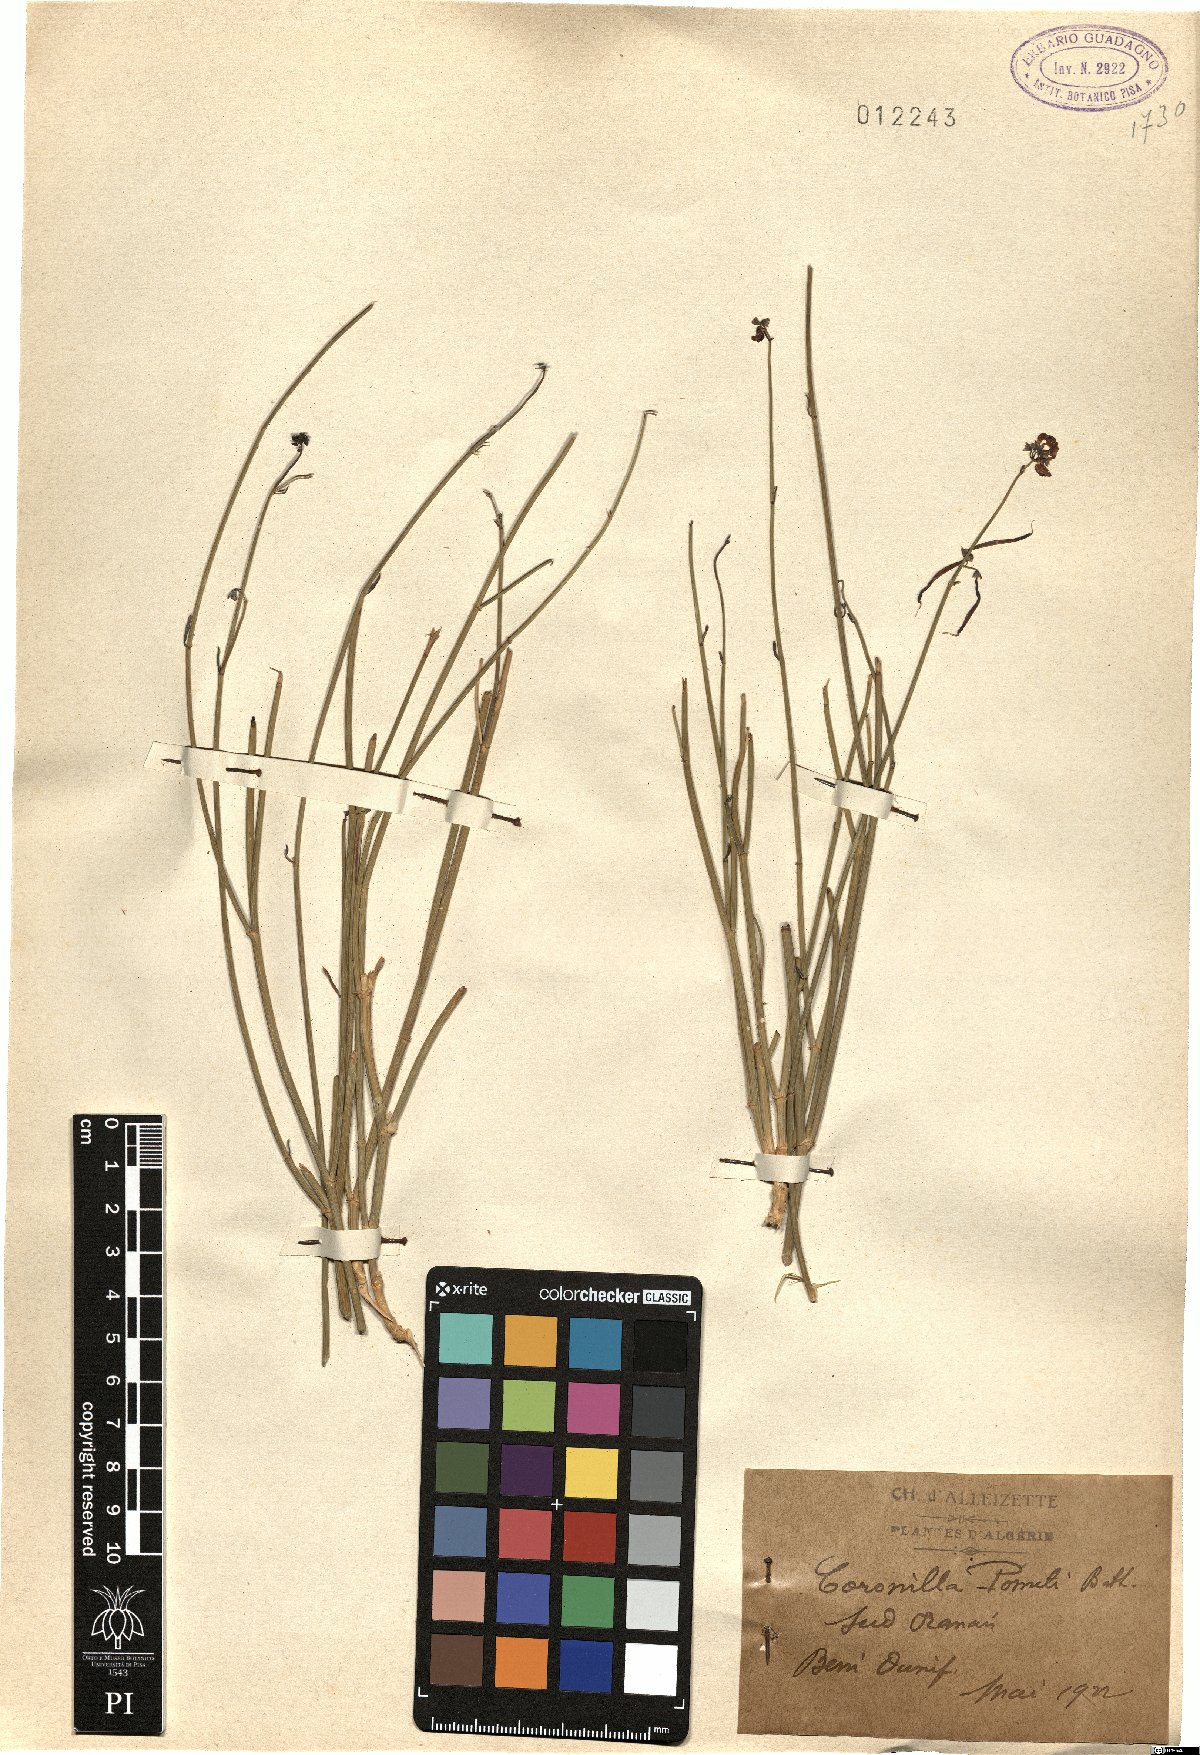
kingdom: Plantae
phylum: Tracheophyta
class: Magnoliopsida
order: Fabales
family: Fabaceae
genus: Coronilla
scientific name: Coronilla juncea
